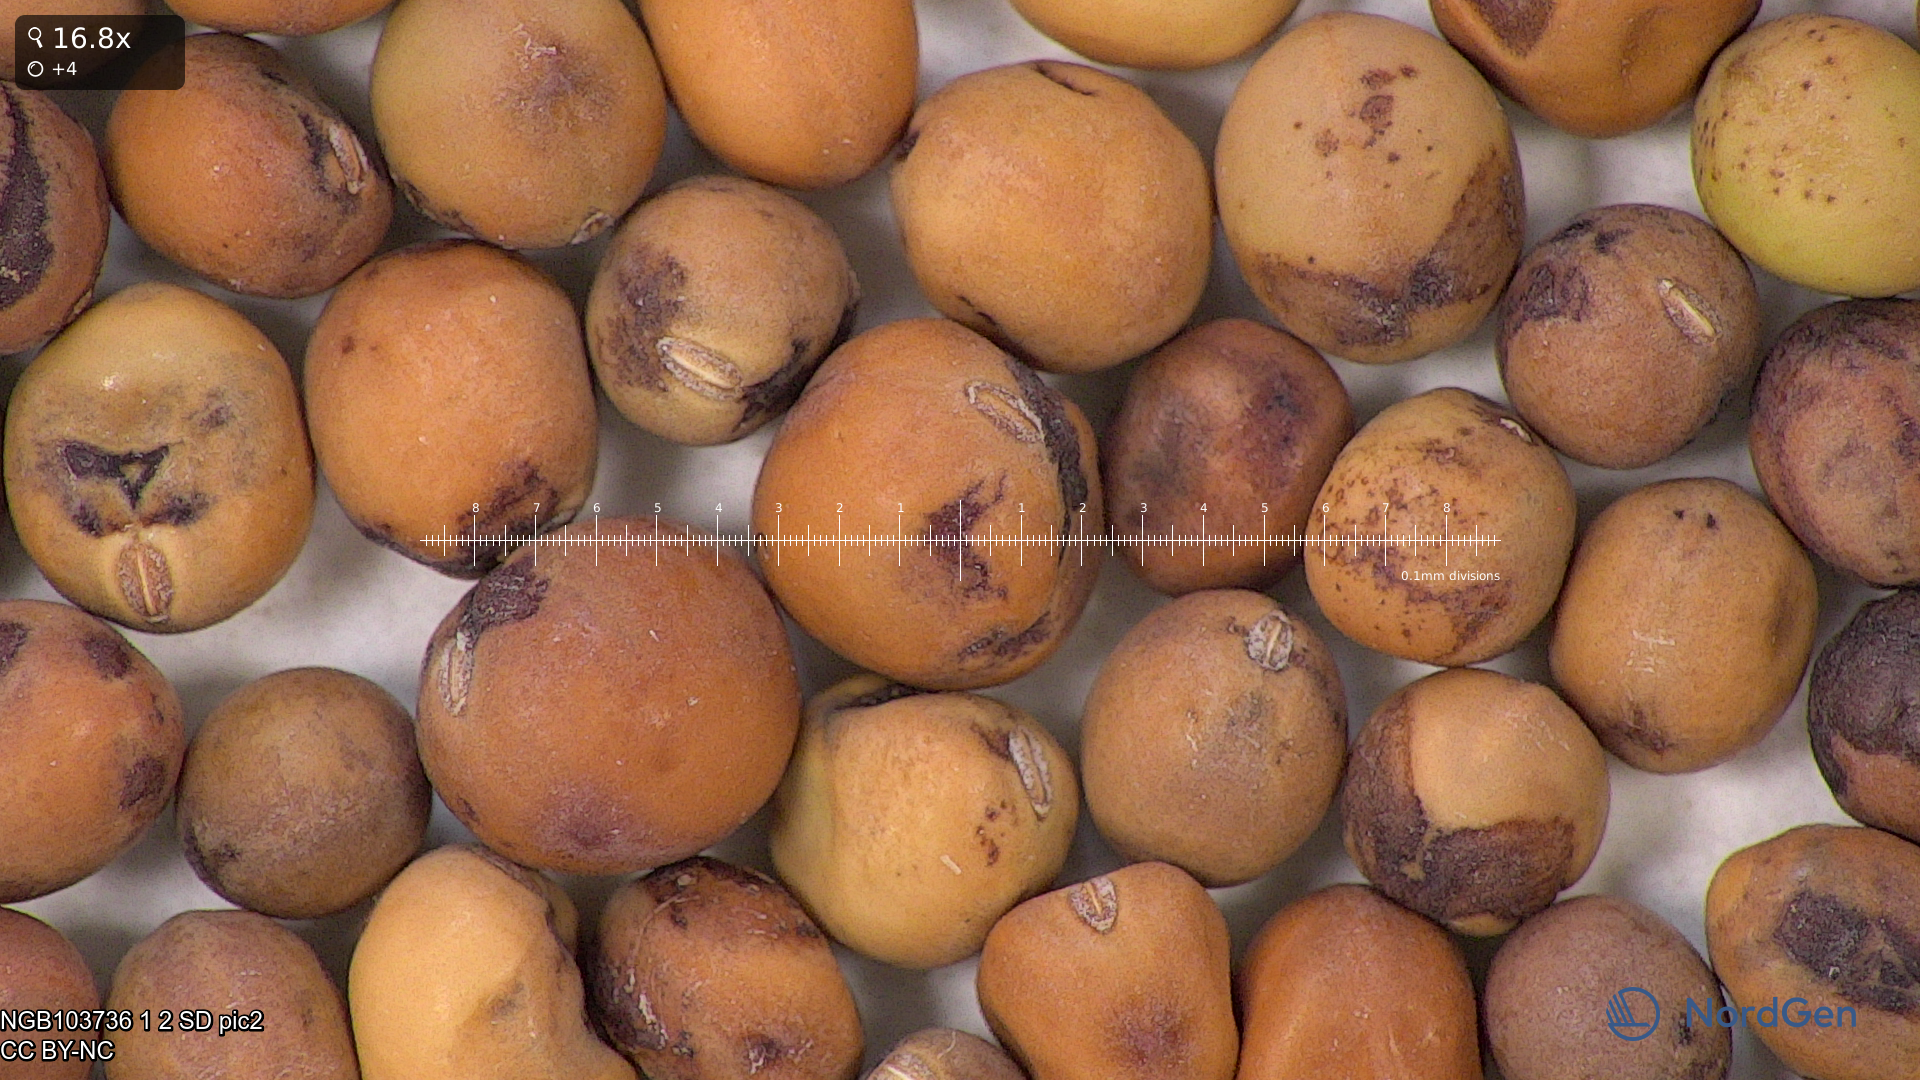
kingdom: Plantae
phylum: Tracheophyta
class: Magnoliopsida
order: Fabales
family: Fabaceae
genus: Lathyrus
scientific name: Lathyrus oleraceus
